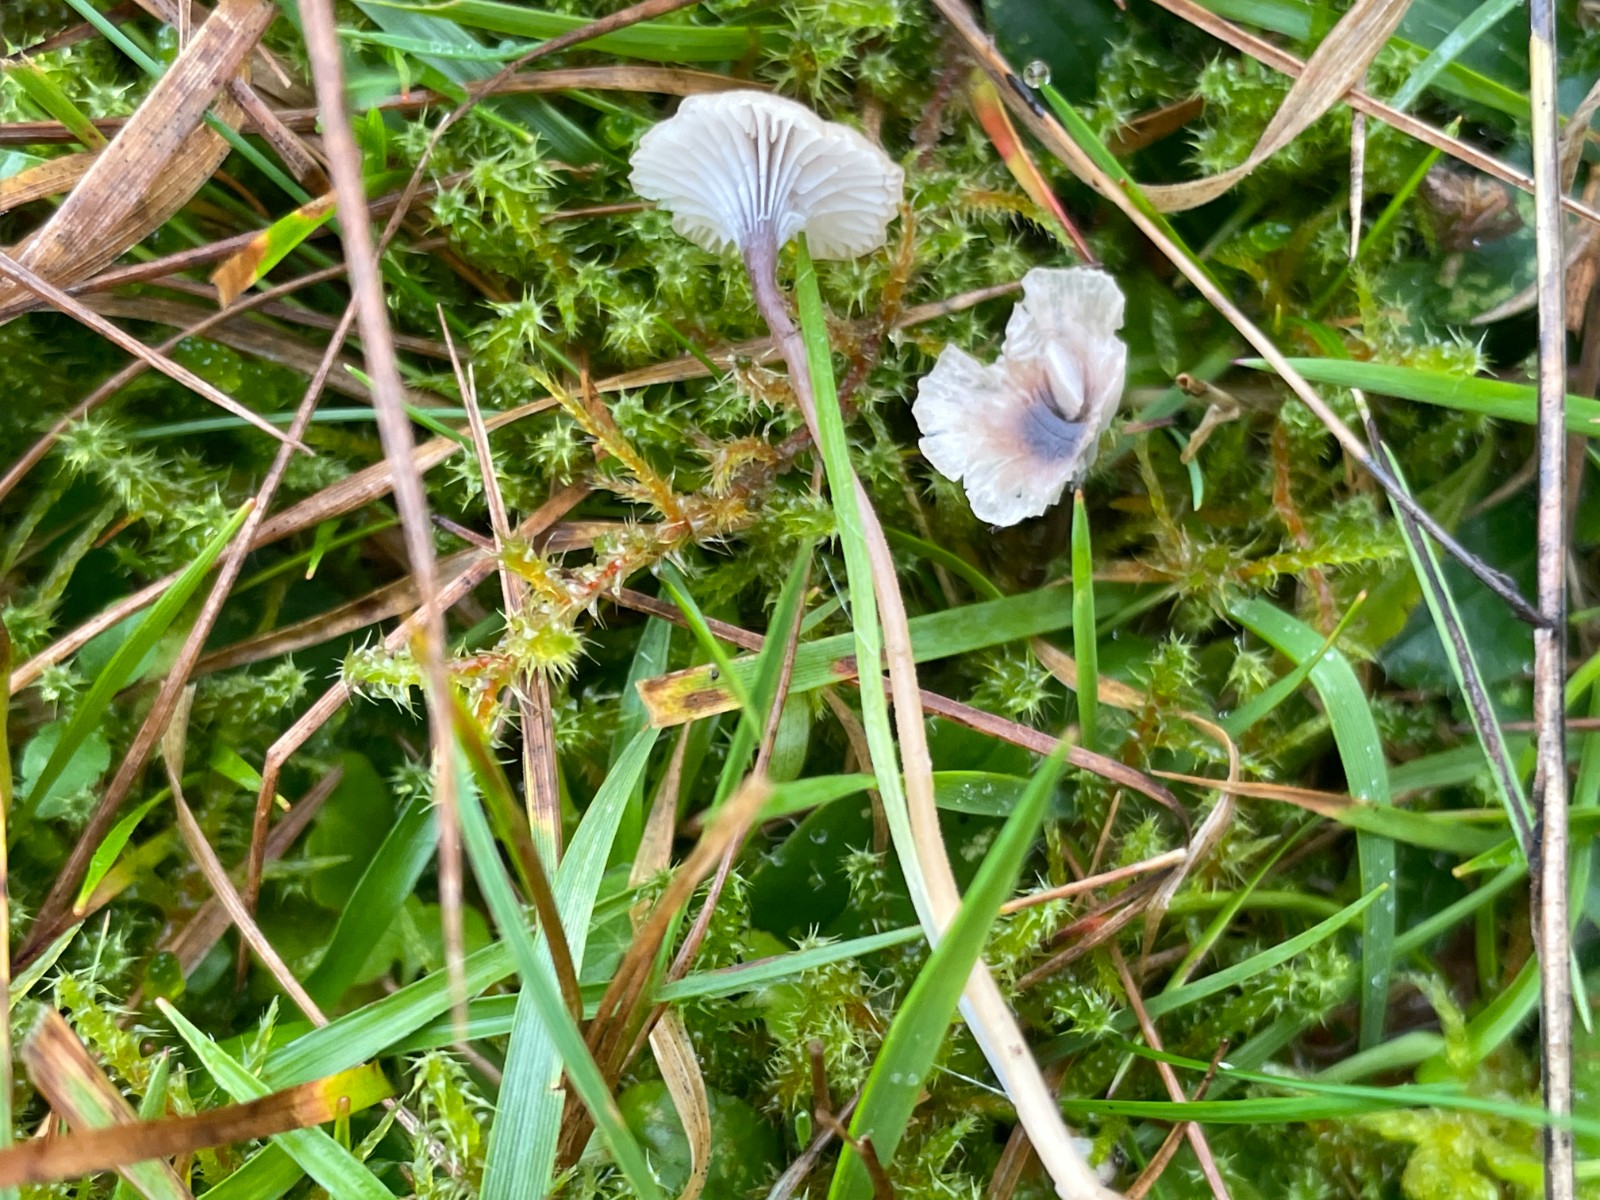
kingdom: Fungi
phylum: Basidiomycota
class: Agaricomycetes
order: Hymenochaetales
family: Rickenellaceae
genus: Rickenella
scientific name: Rickenella swartzii
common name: finstokket mosnavlehat
